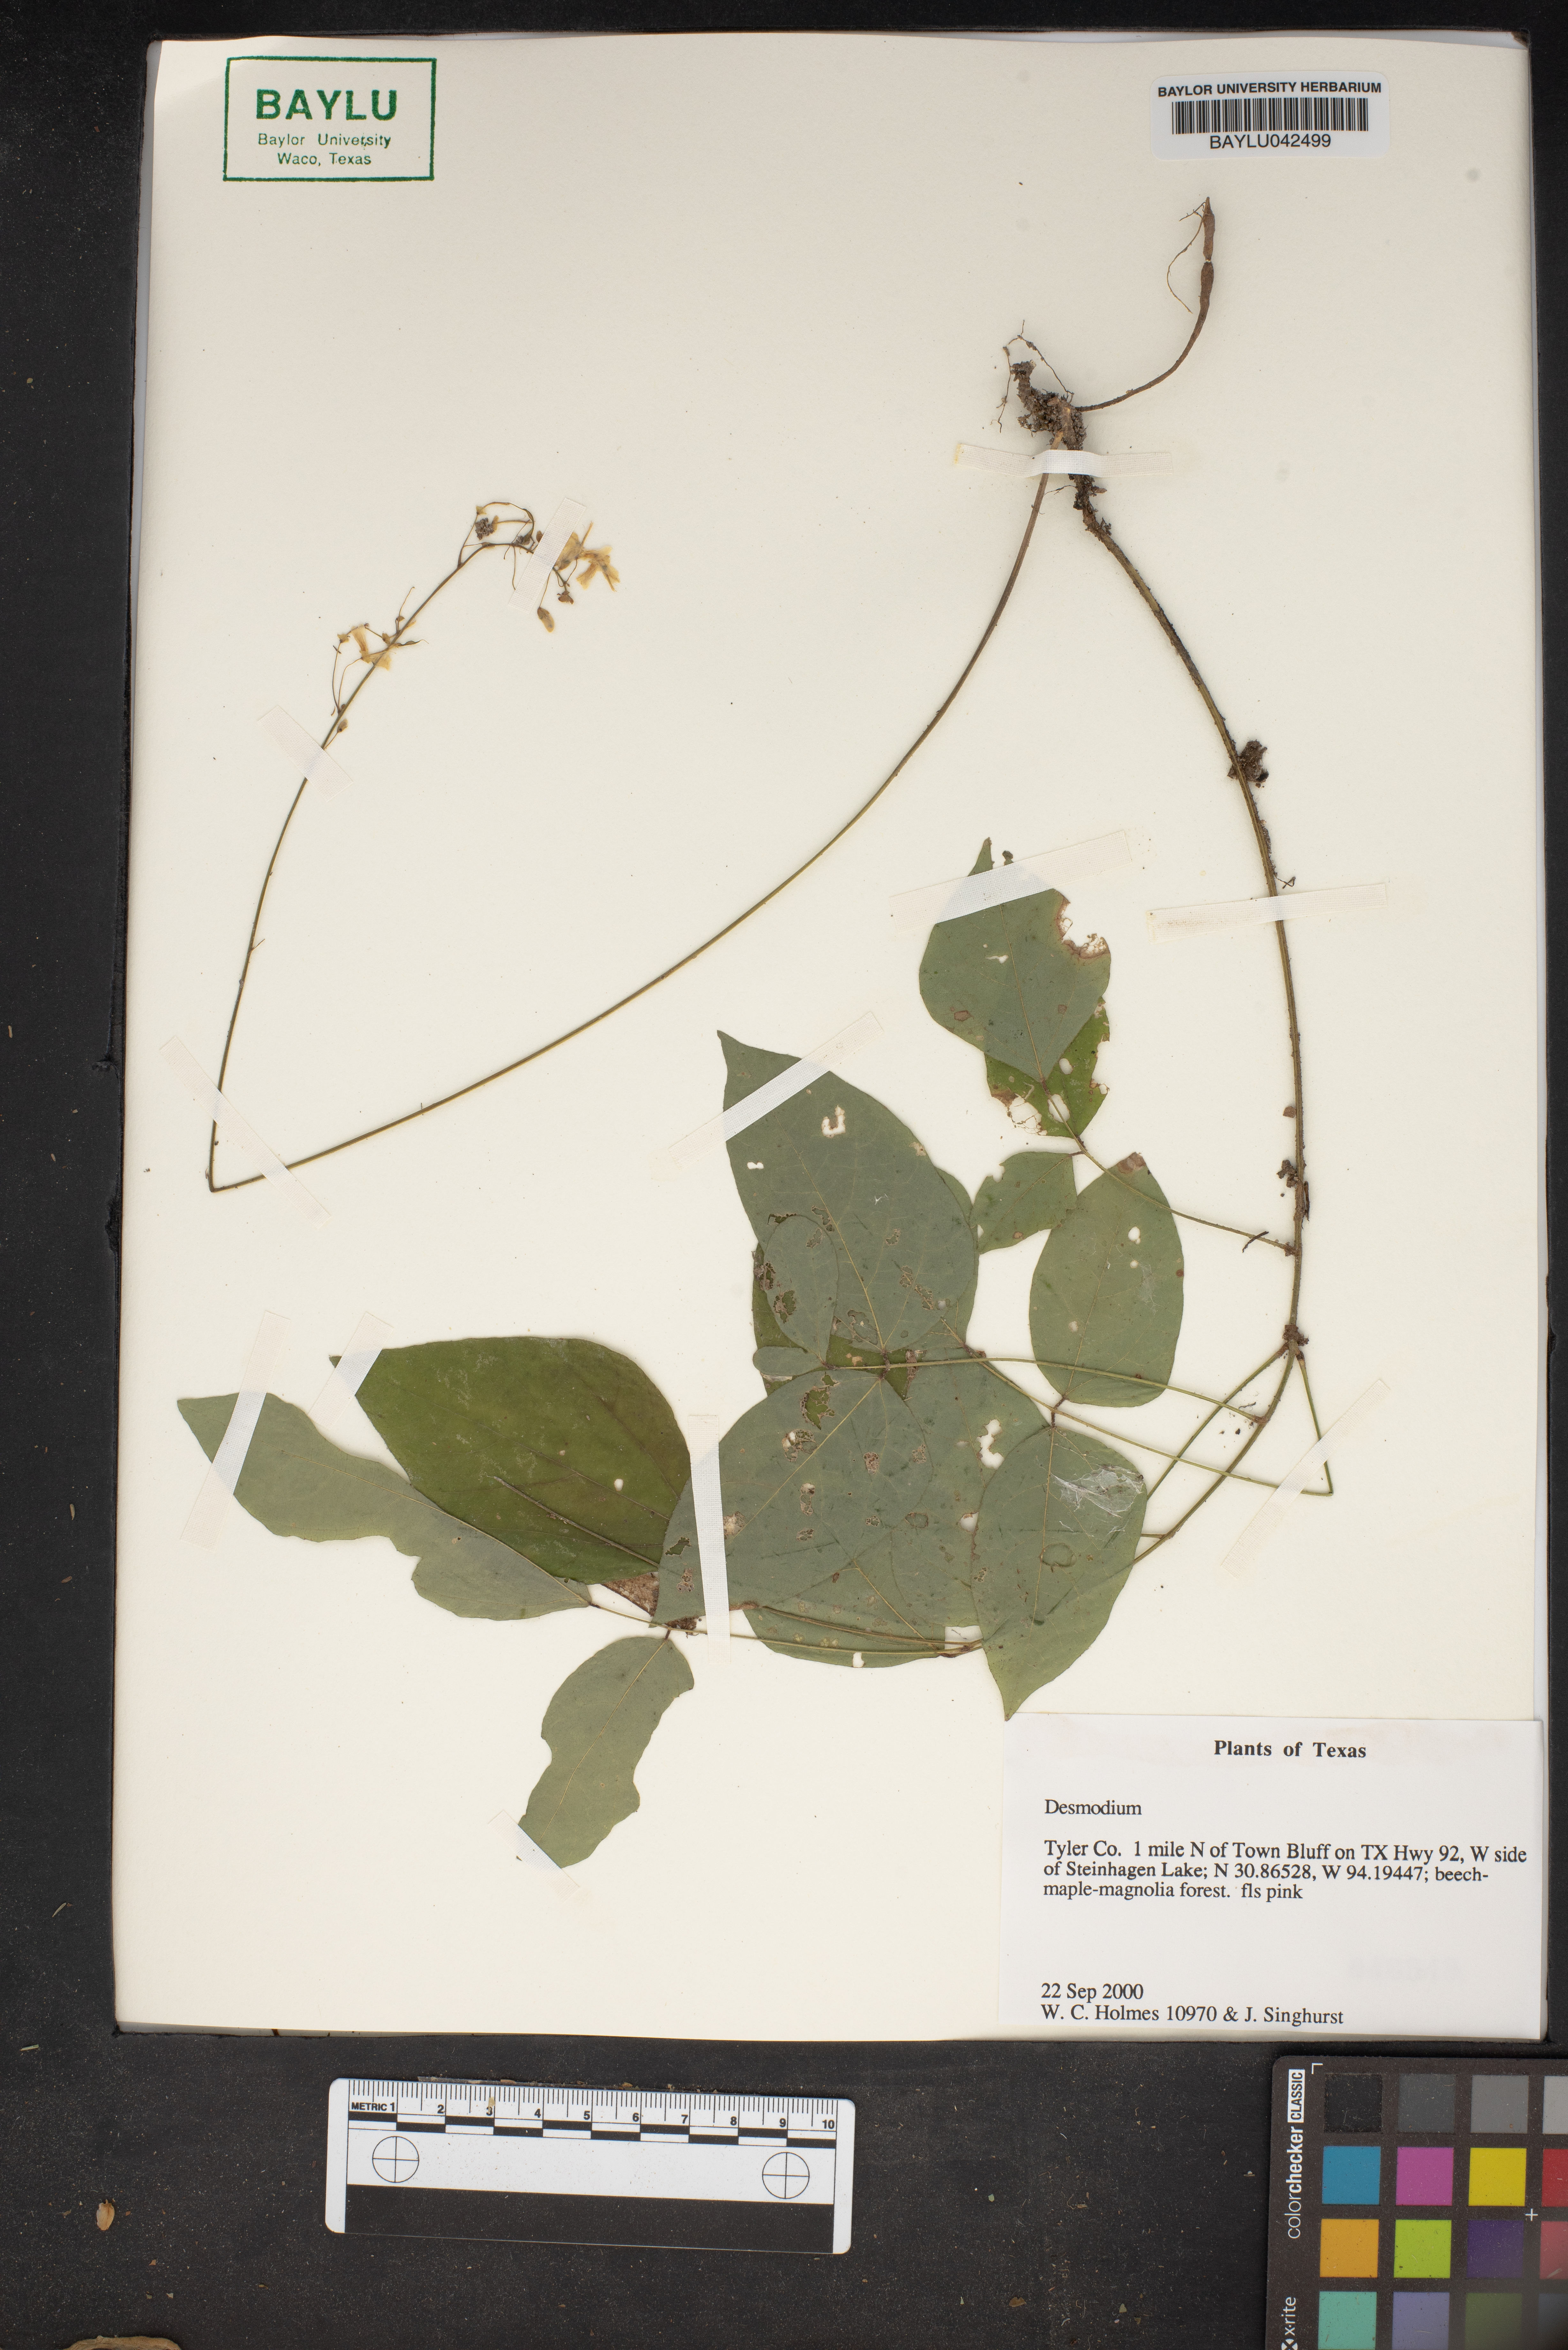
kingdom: Plantae
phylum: Tracheophyta
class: Magnoliopsida
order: Fabales
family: Fabaceae
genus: Desmodium
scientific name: Desmodium
